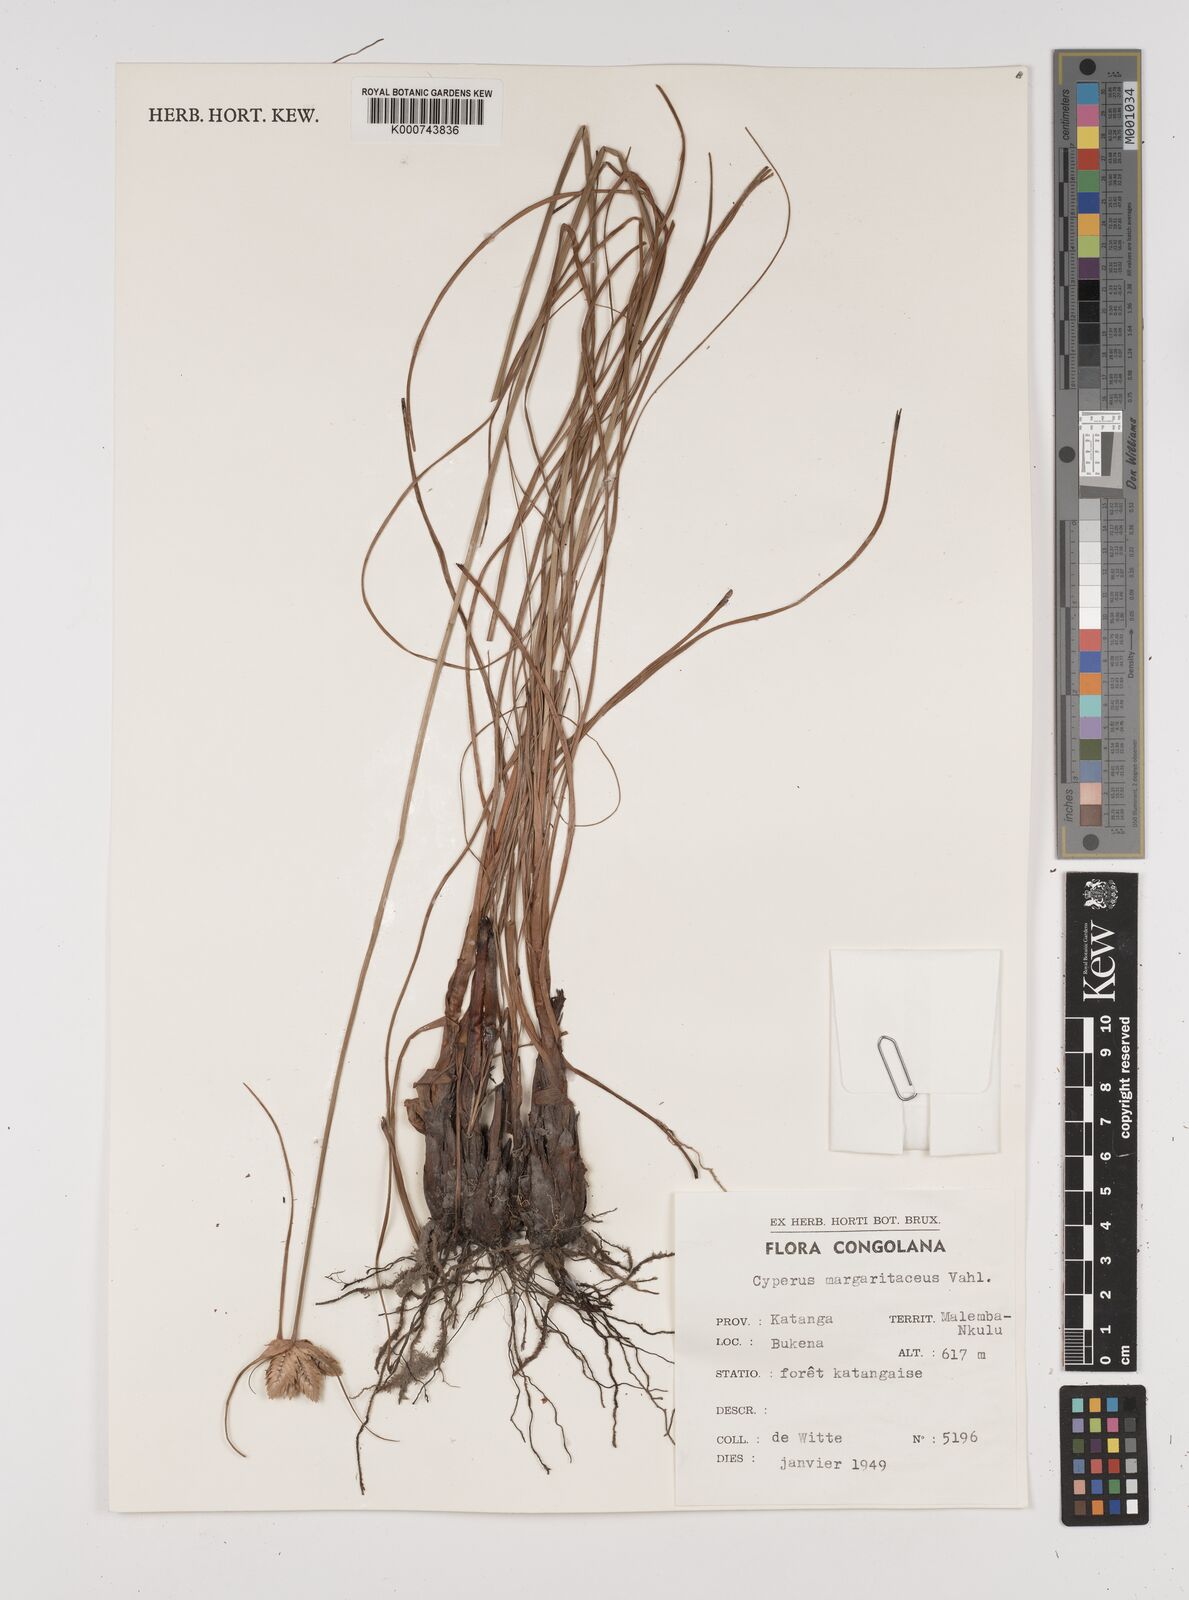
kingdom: Plantae
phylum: Tracheophyta
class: Liliopsida
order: Poales
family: Cyperaceae
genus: Cyperus
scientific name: Cyperus margaritaceus
